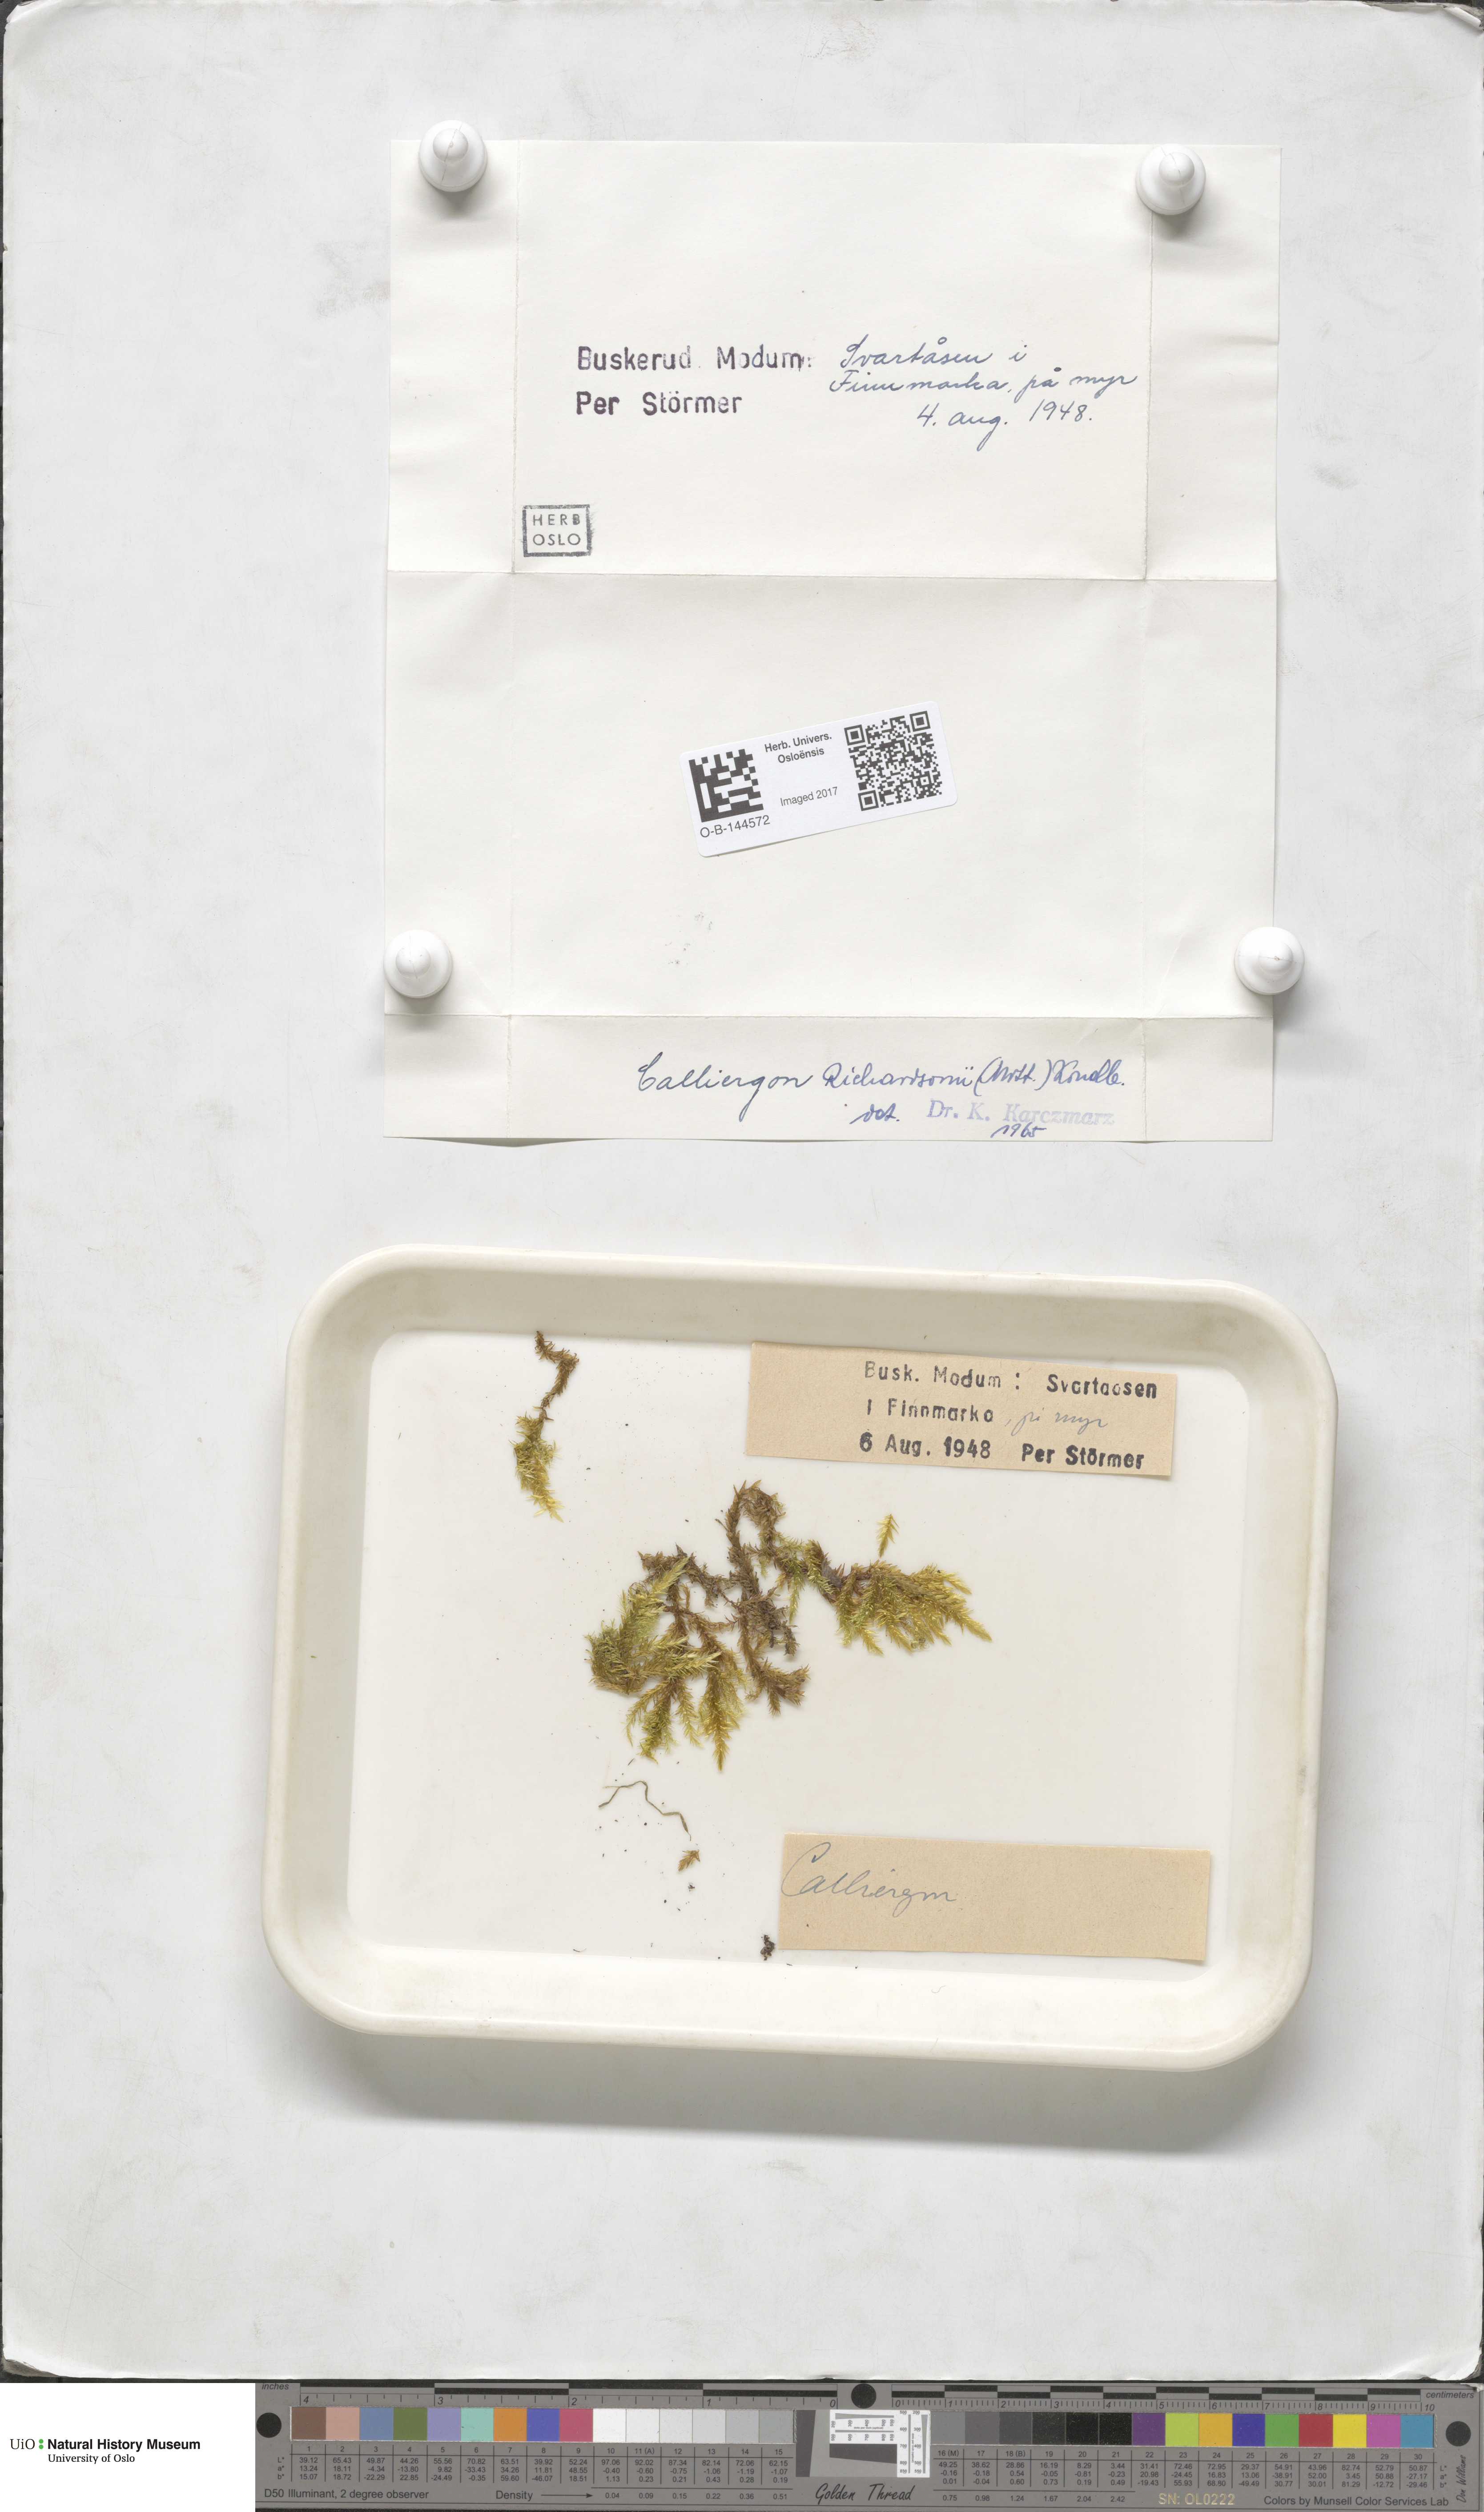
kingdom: Plantae
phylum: Bryophyta
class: Bryopsida
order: Hypnales
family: Calliergonaceae
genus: Calliergon
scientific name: Calliergon richardsonii
